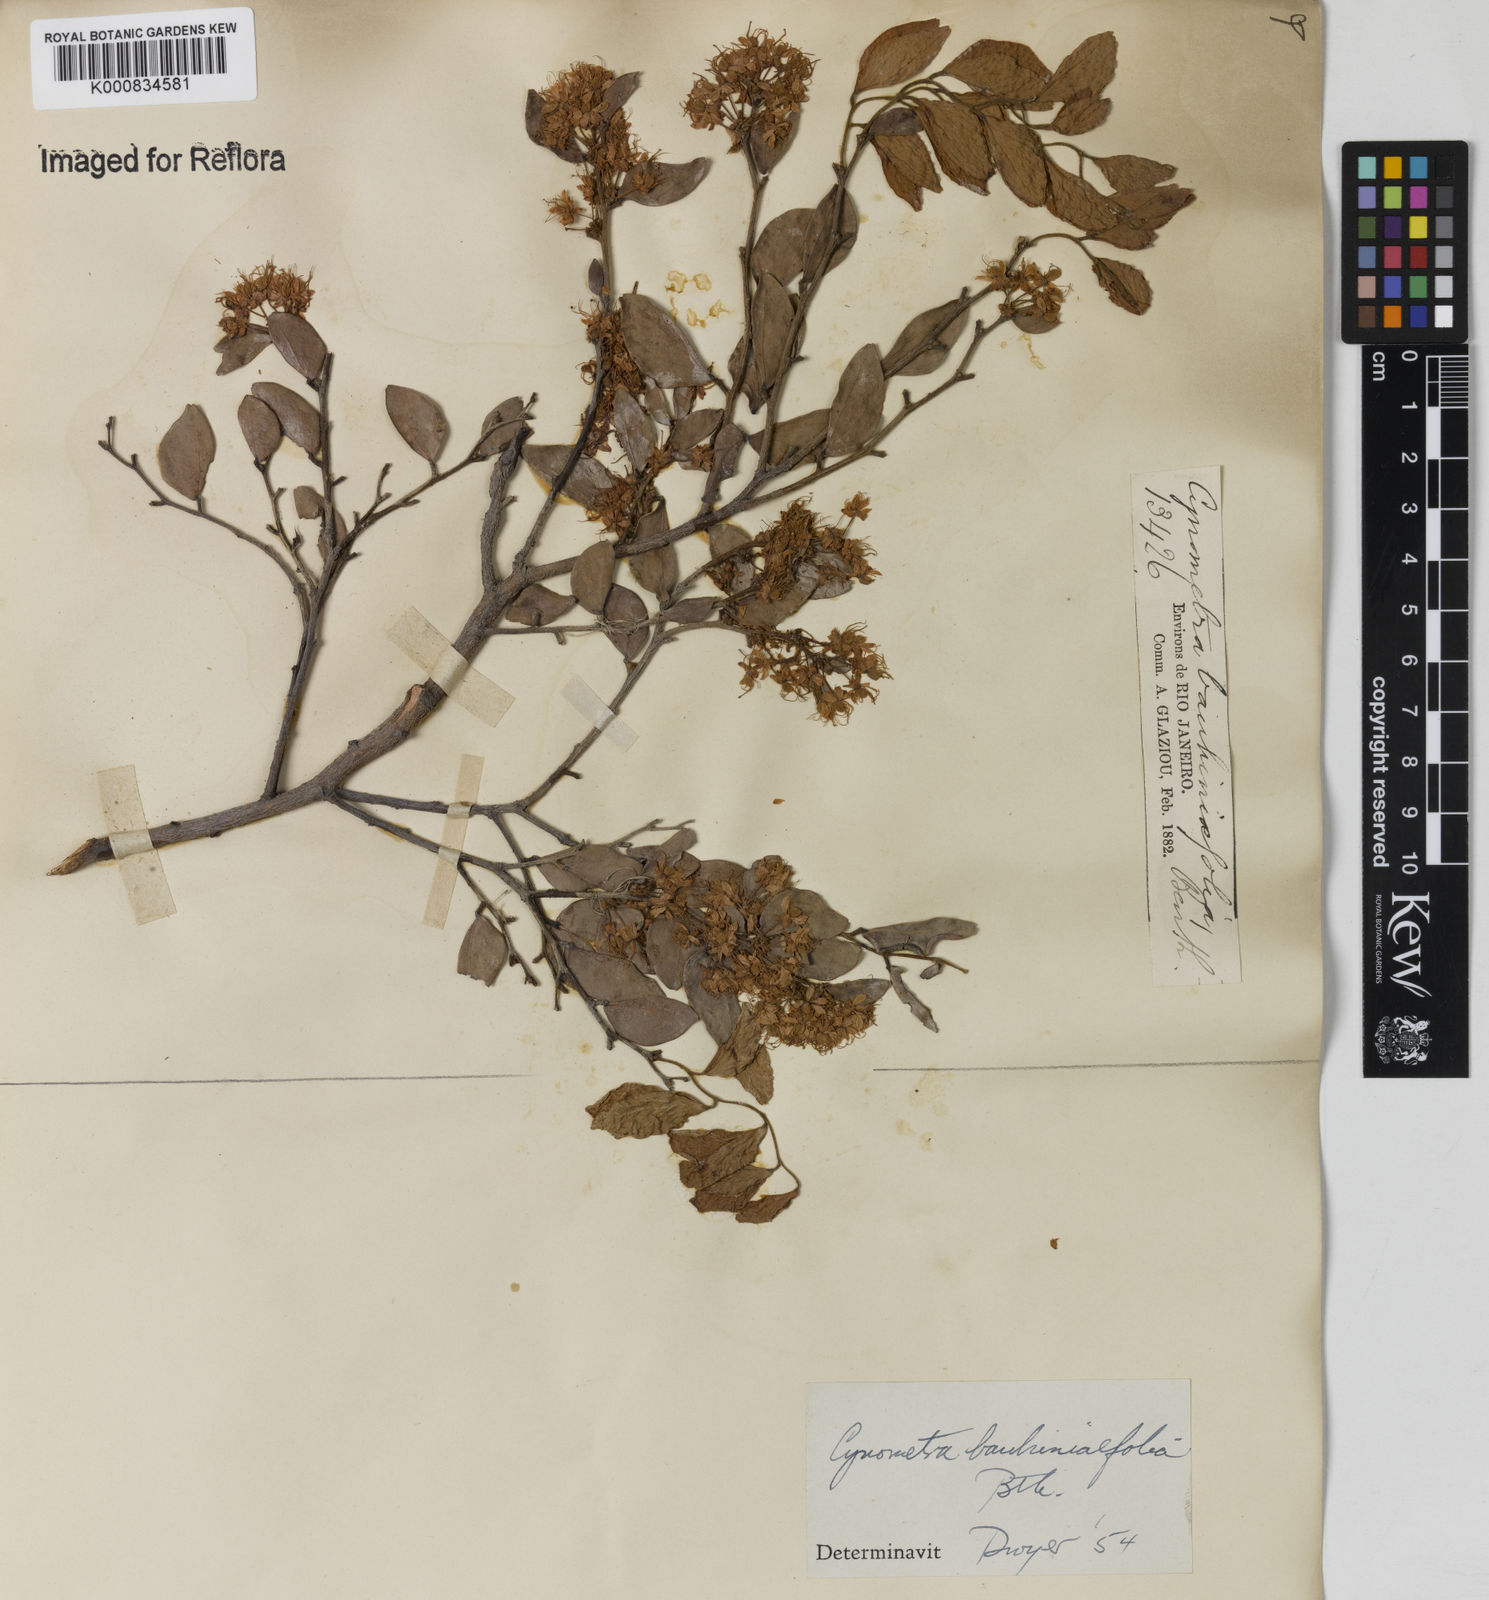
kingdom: Plantae
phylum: Tracheophyta
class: Magnoliopsida
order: Fabales
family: Fabaceae
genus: Cynometra
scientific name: Cynometra bauhiniifolia
